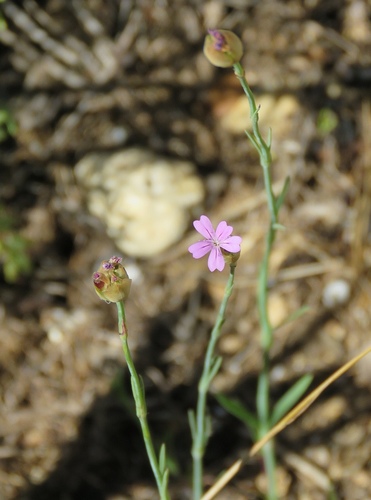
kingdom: Plantae
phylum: Tracheophyta
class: Magnoliopsida
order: Caryophyllales
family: Caryophyllaceae
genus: Petrorhagia
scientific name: Petrorhagia nanteuilii
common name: Proliferous pink
